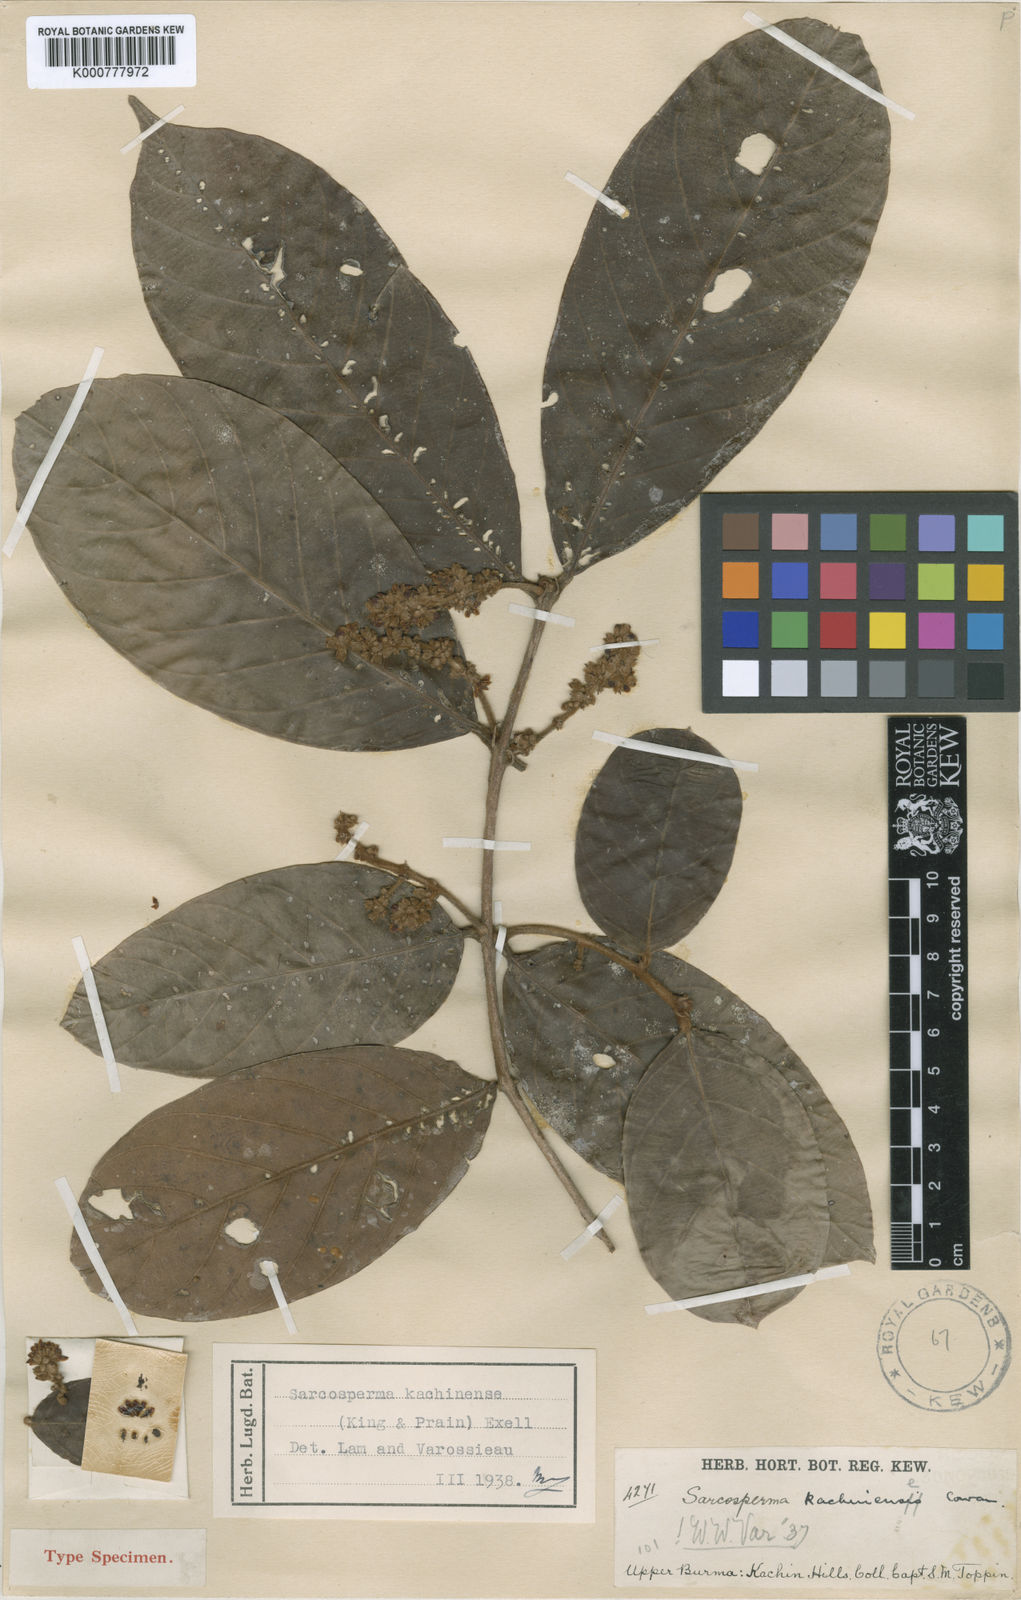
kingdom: Plantae
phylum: Tracheophyta
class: Magnoliopsida
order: Ericales
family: Sapotaceae
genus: Sarcosperma
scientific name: Sarcosperma kachinense
